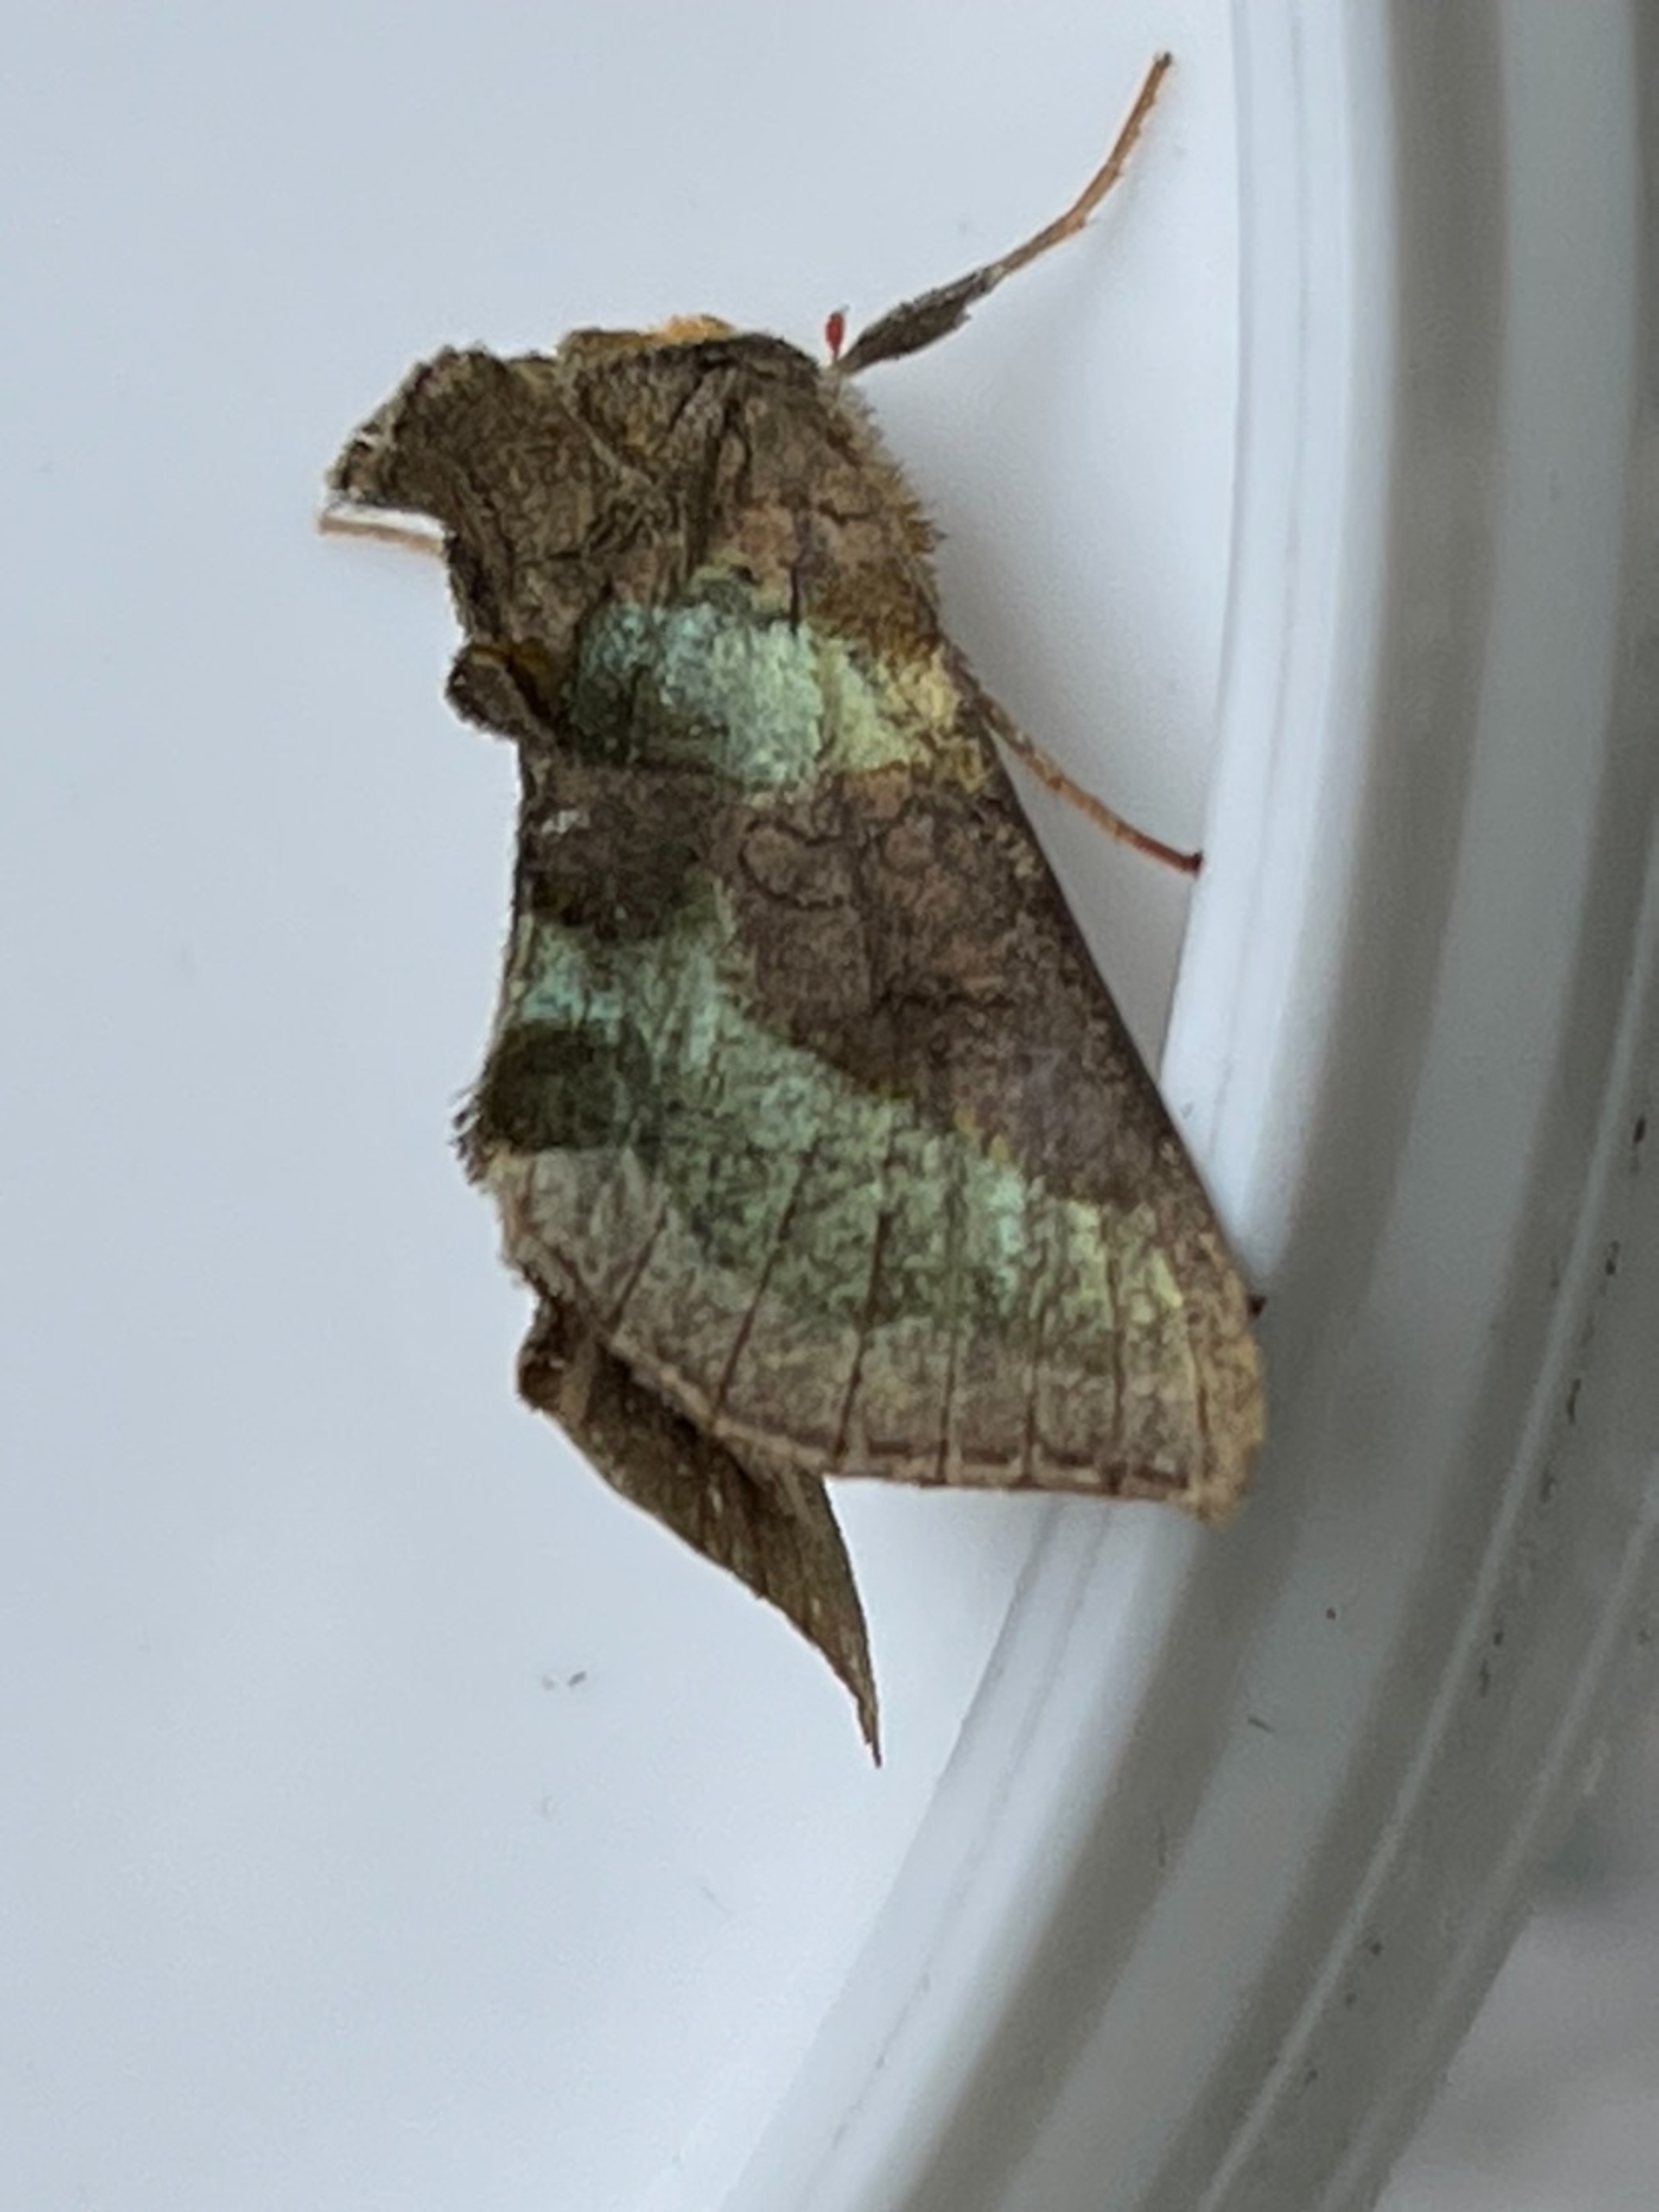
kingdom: Animalia
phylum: Arthropoda
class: Insecta
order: Lepidoptera
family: Noctuidae
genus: Diachrysia
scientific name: Diachrysia chrysitis
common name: Messingugle
